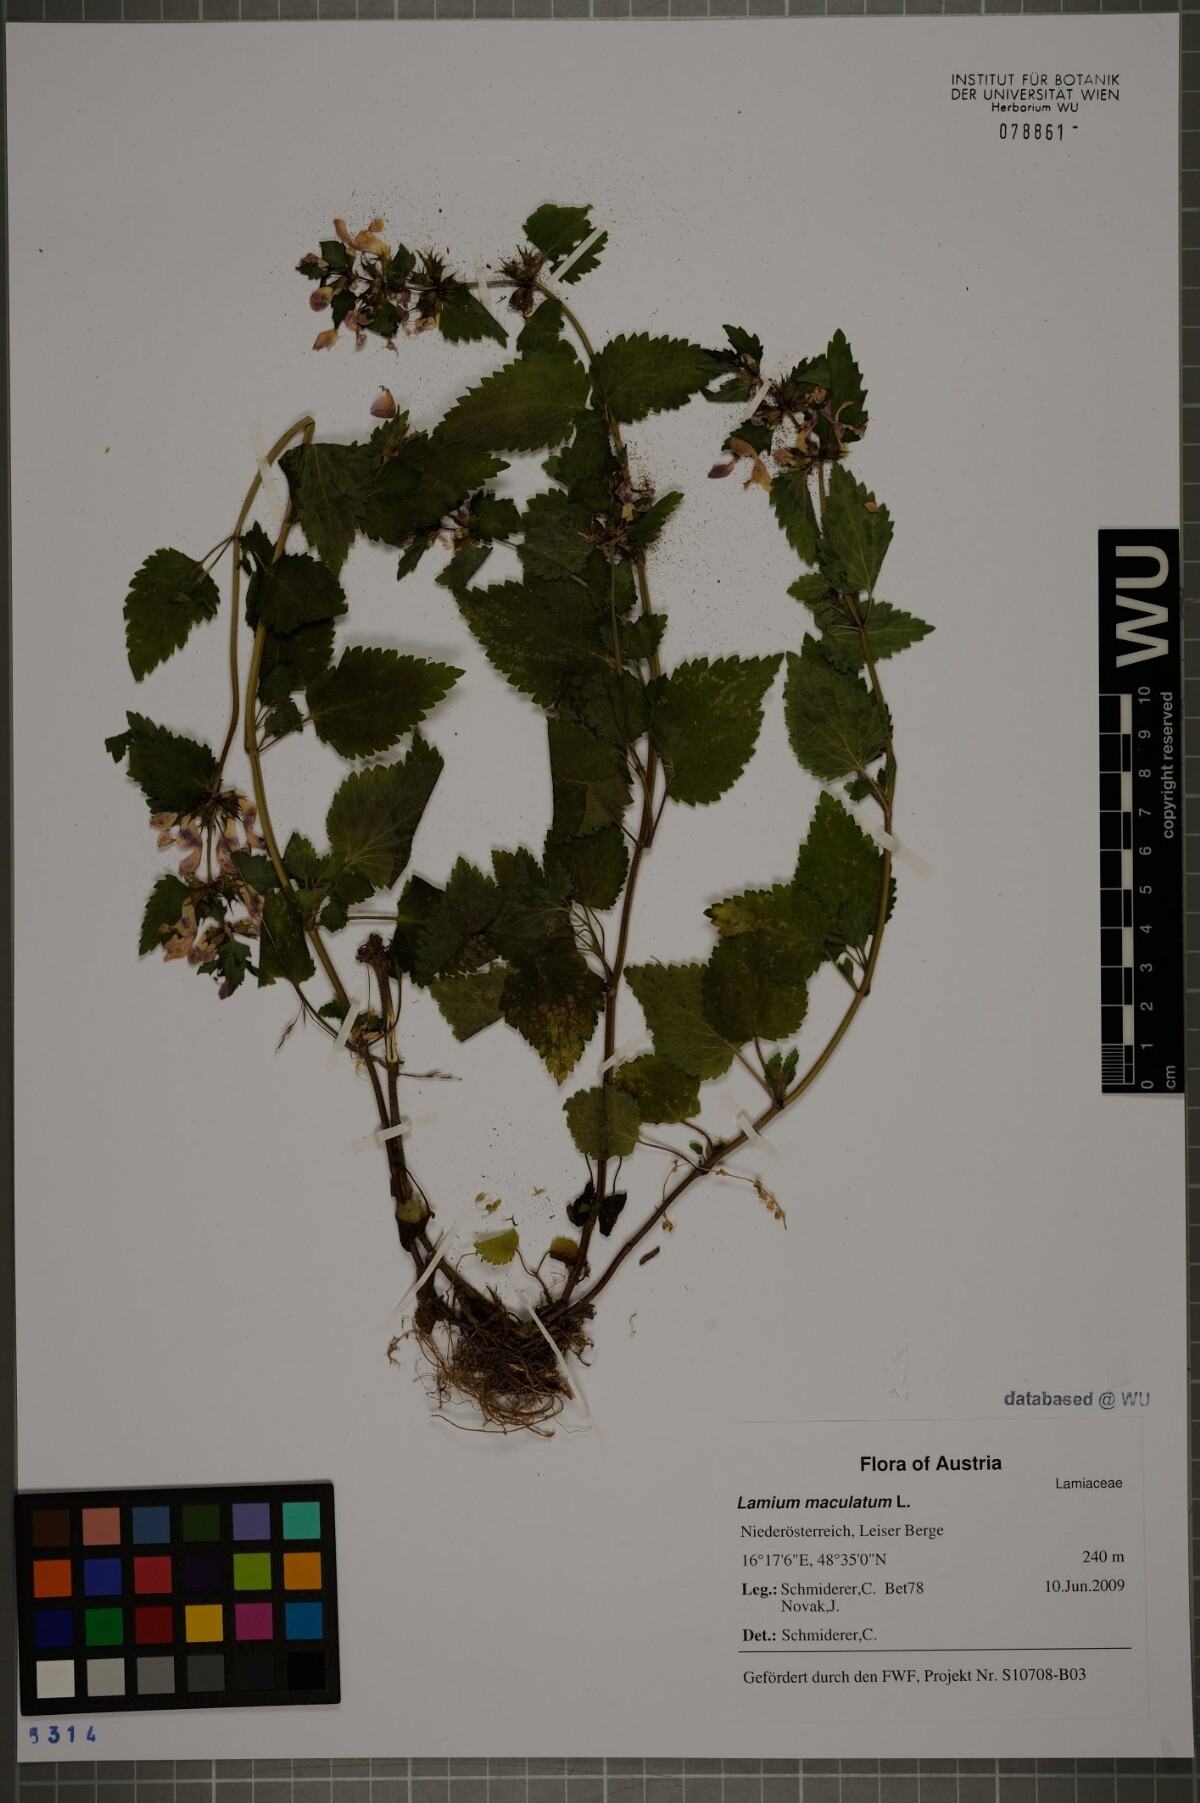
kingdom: Plantae
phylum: Tracheophyta
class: Magnoliopsida
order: Lamiales
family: Lamiaceae
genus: Lamium
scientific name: Lamium maculatum
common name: Spotted dead-nettle
